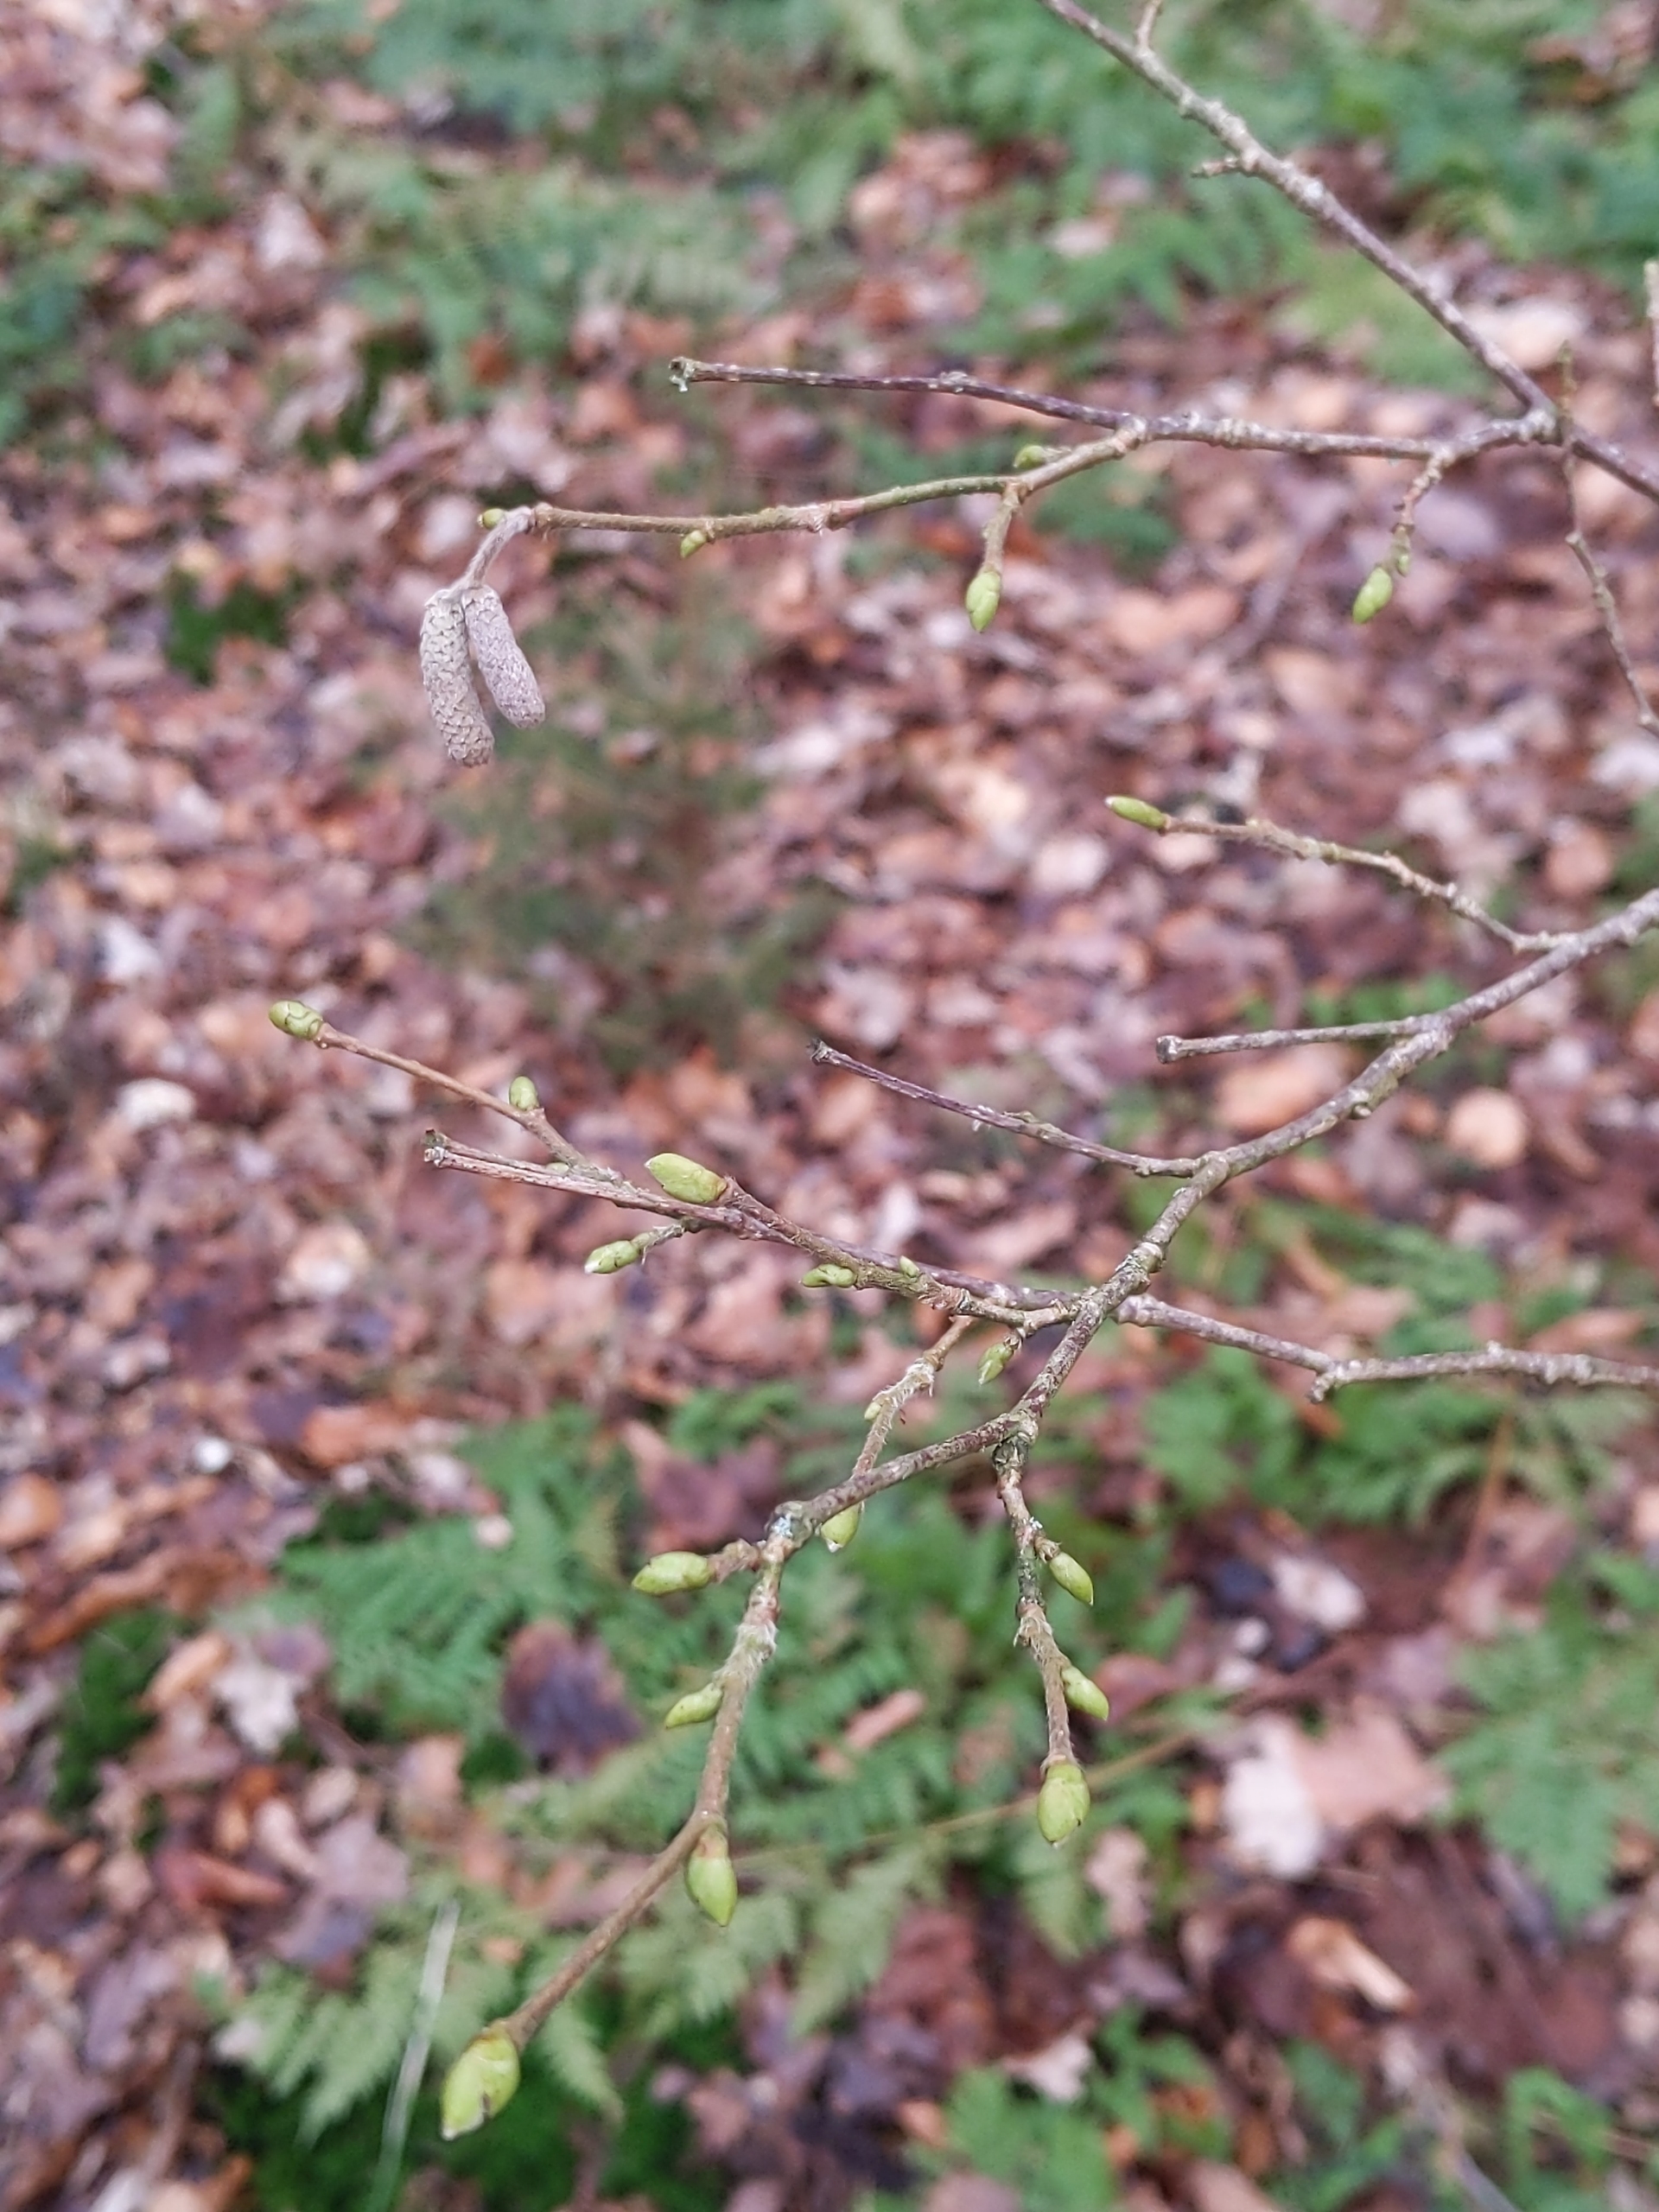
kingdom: Plantae
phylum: Tracheophyta
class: Magnoliopsida
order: Fagales
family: Betulaceae
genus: Corylus
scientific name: Corylus avellana
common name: Hassel
